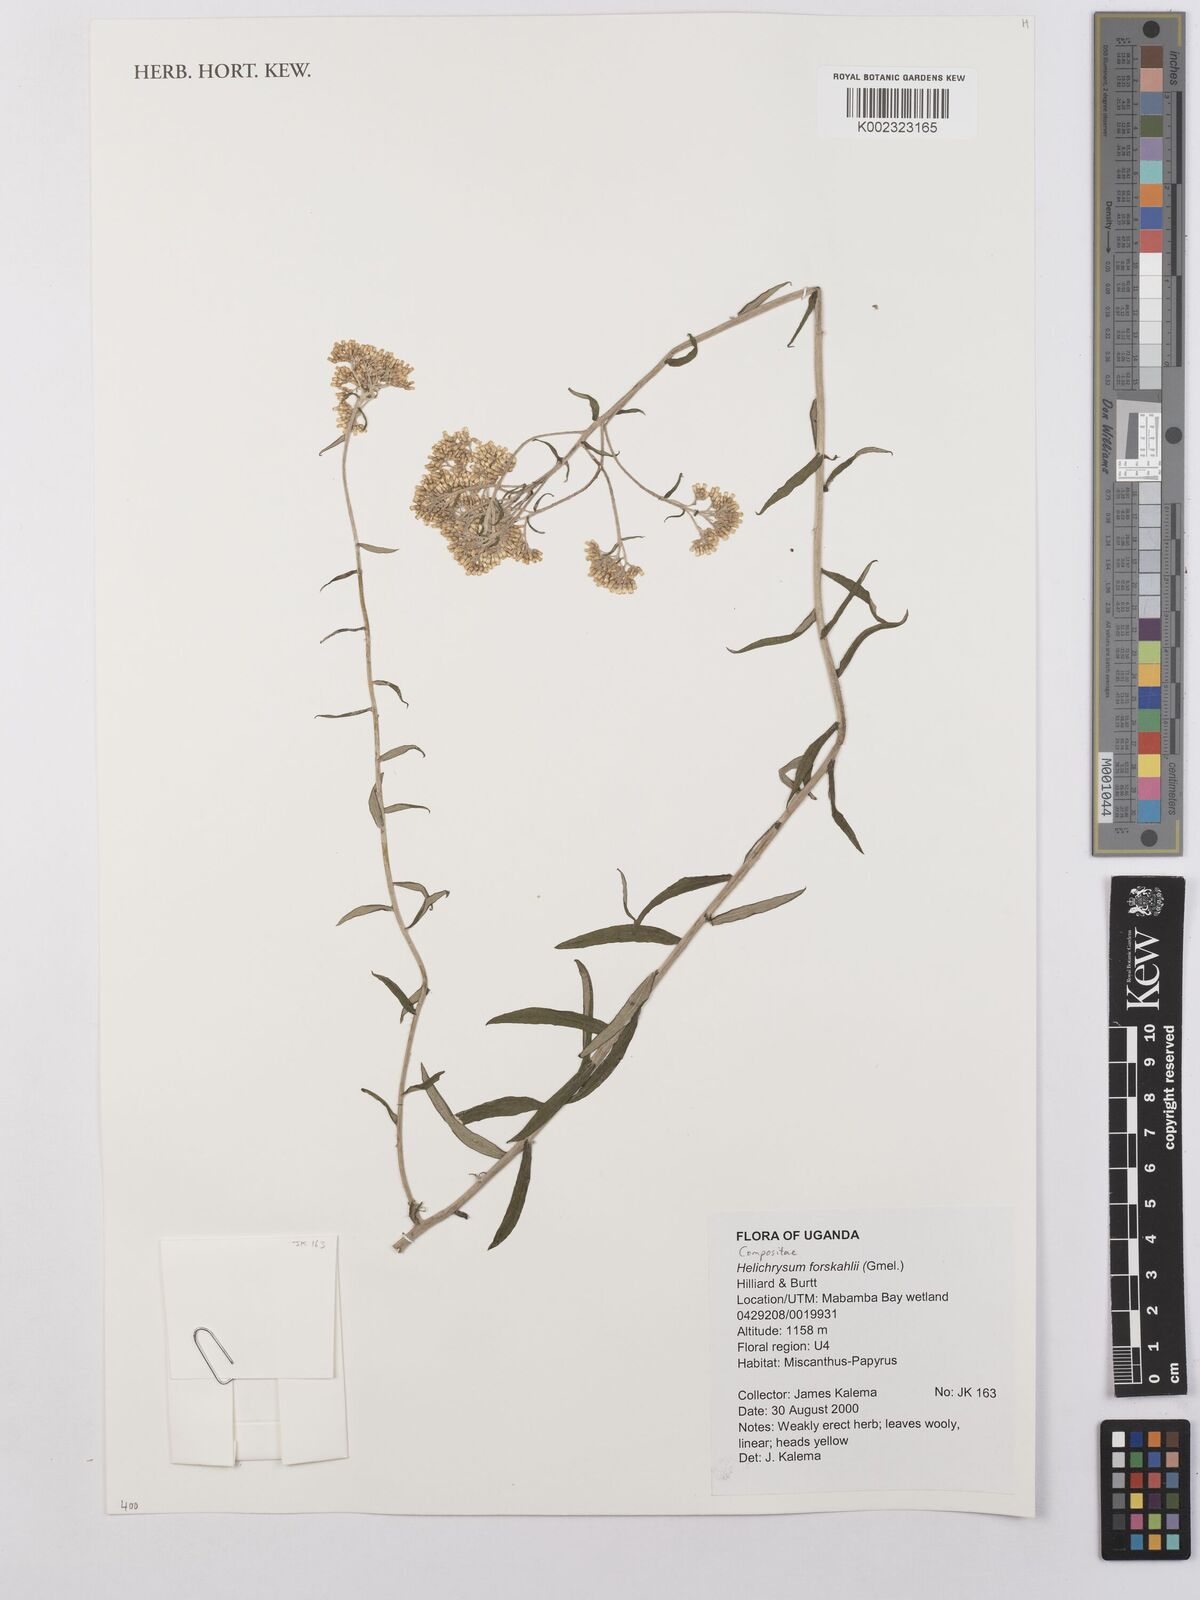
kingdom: Plantae
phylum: Tracheophyta
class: Magnoliopsida
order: Asterales
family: Asteraceae
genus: Helichrysum
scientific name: Helichrysum forskahlii
